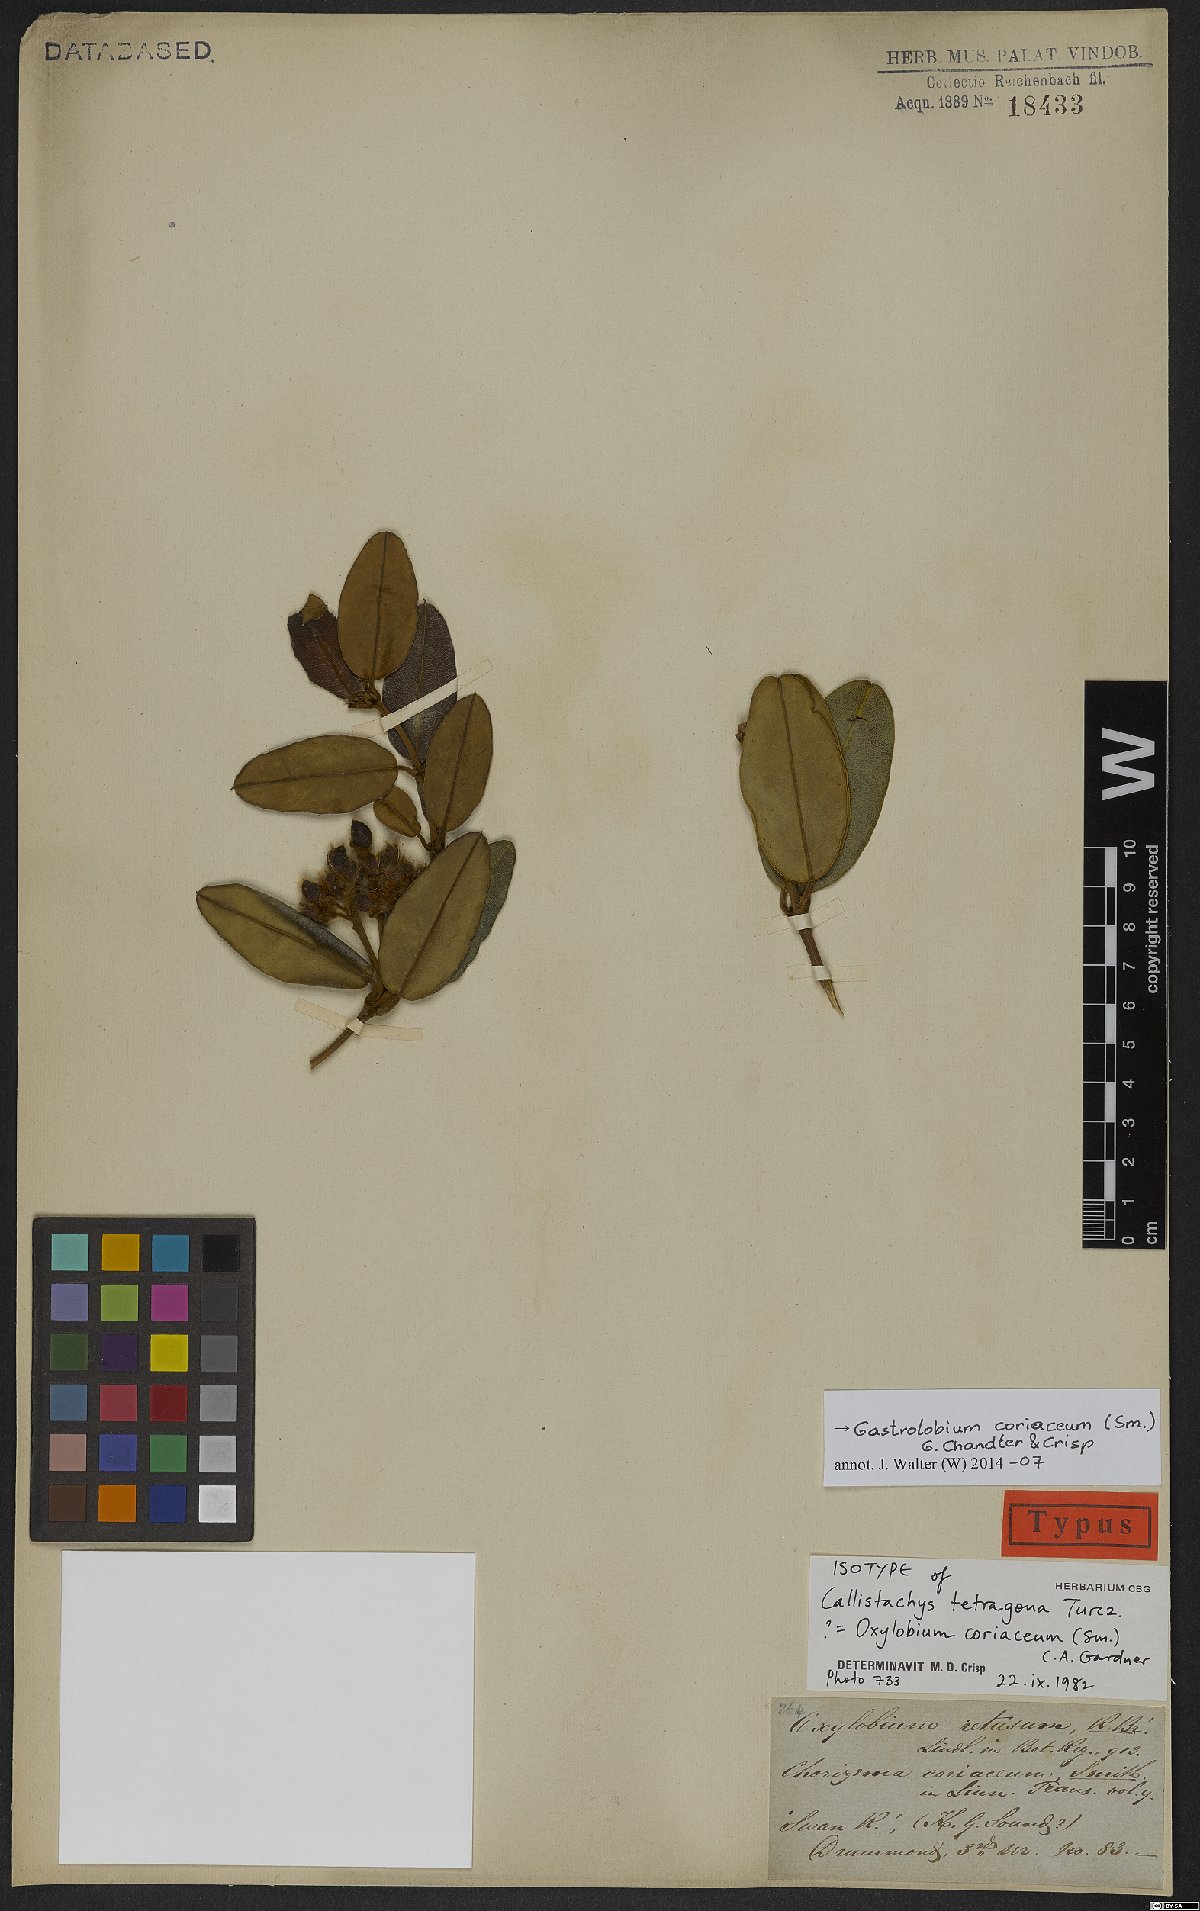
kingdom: Plantae
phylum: Tracheophyta
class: Magnoliopsida
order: Fabales
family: Fabaceae
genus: Gastrolobium
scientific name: Gastrolobium coriaceum
